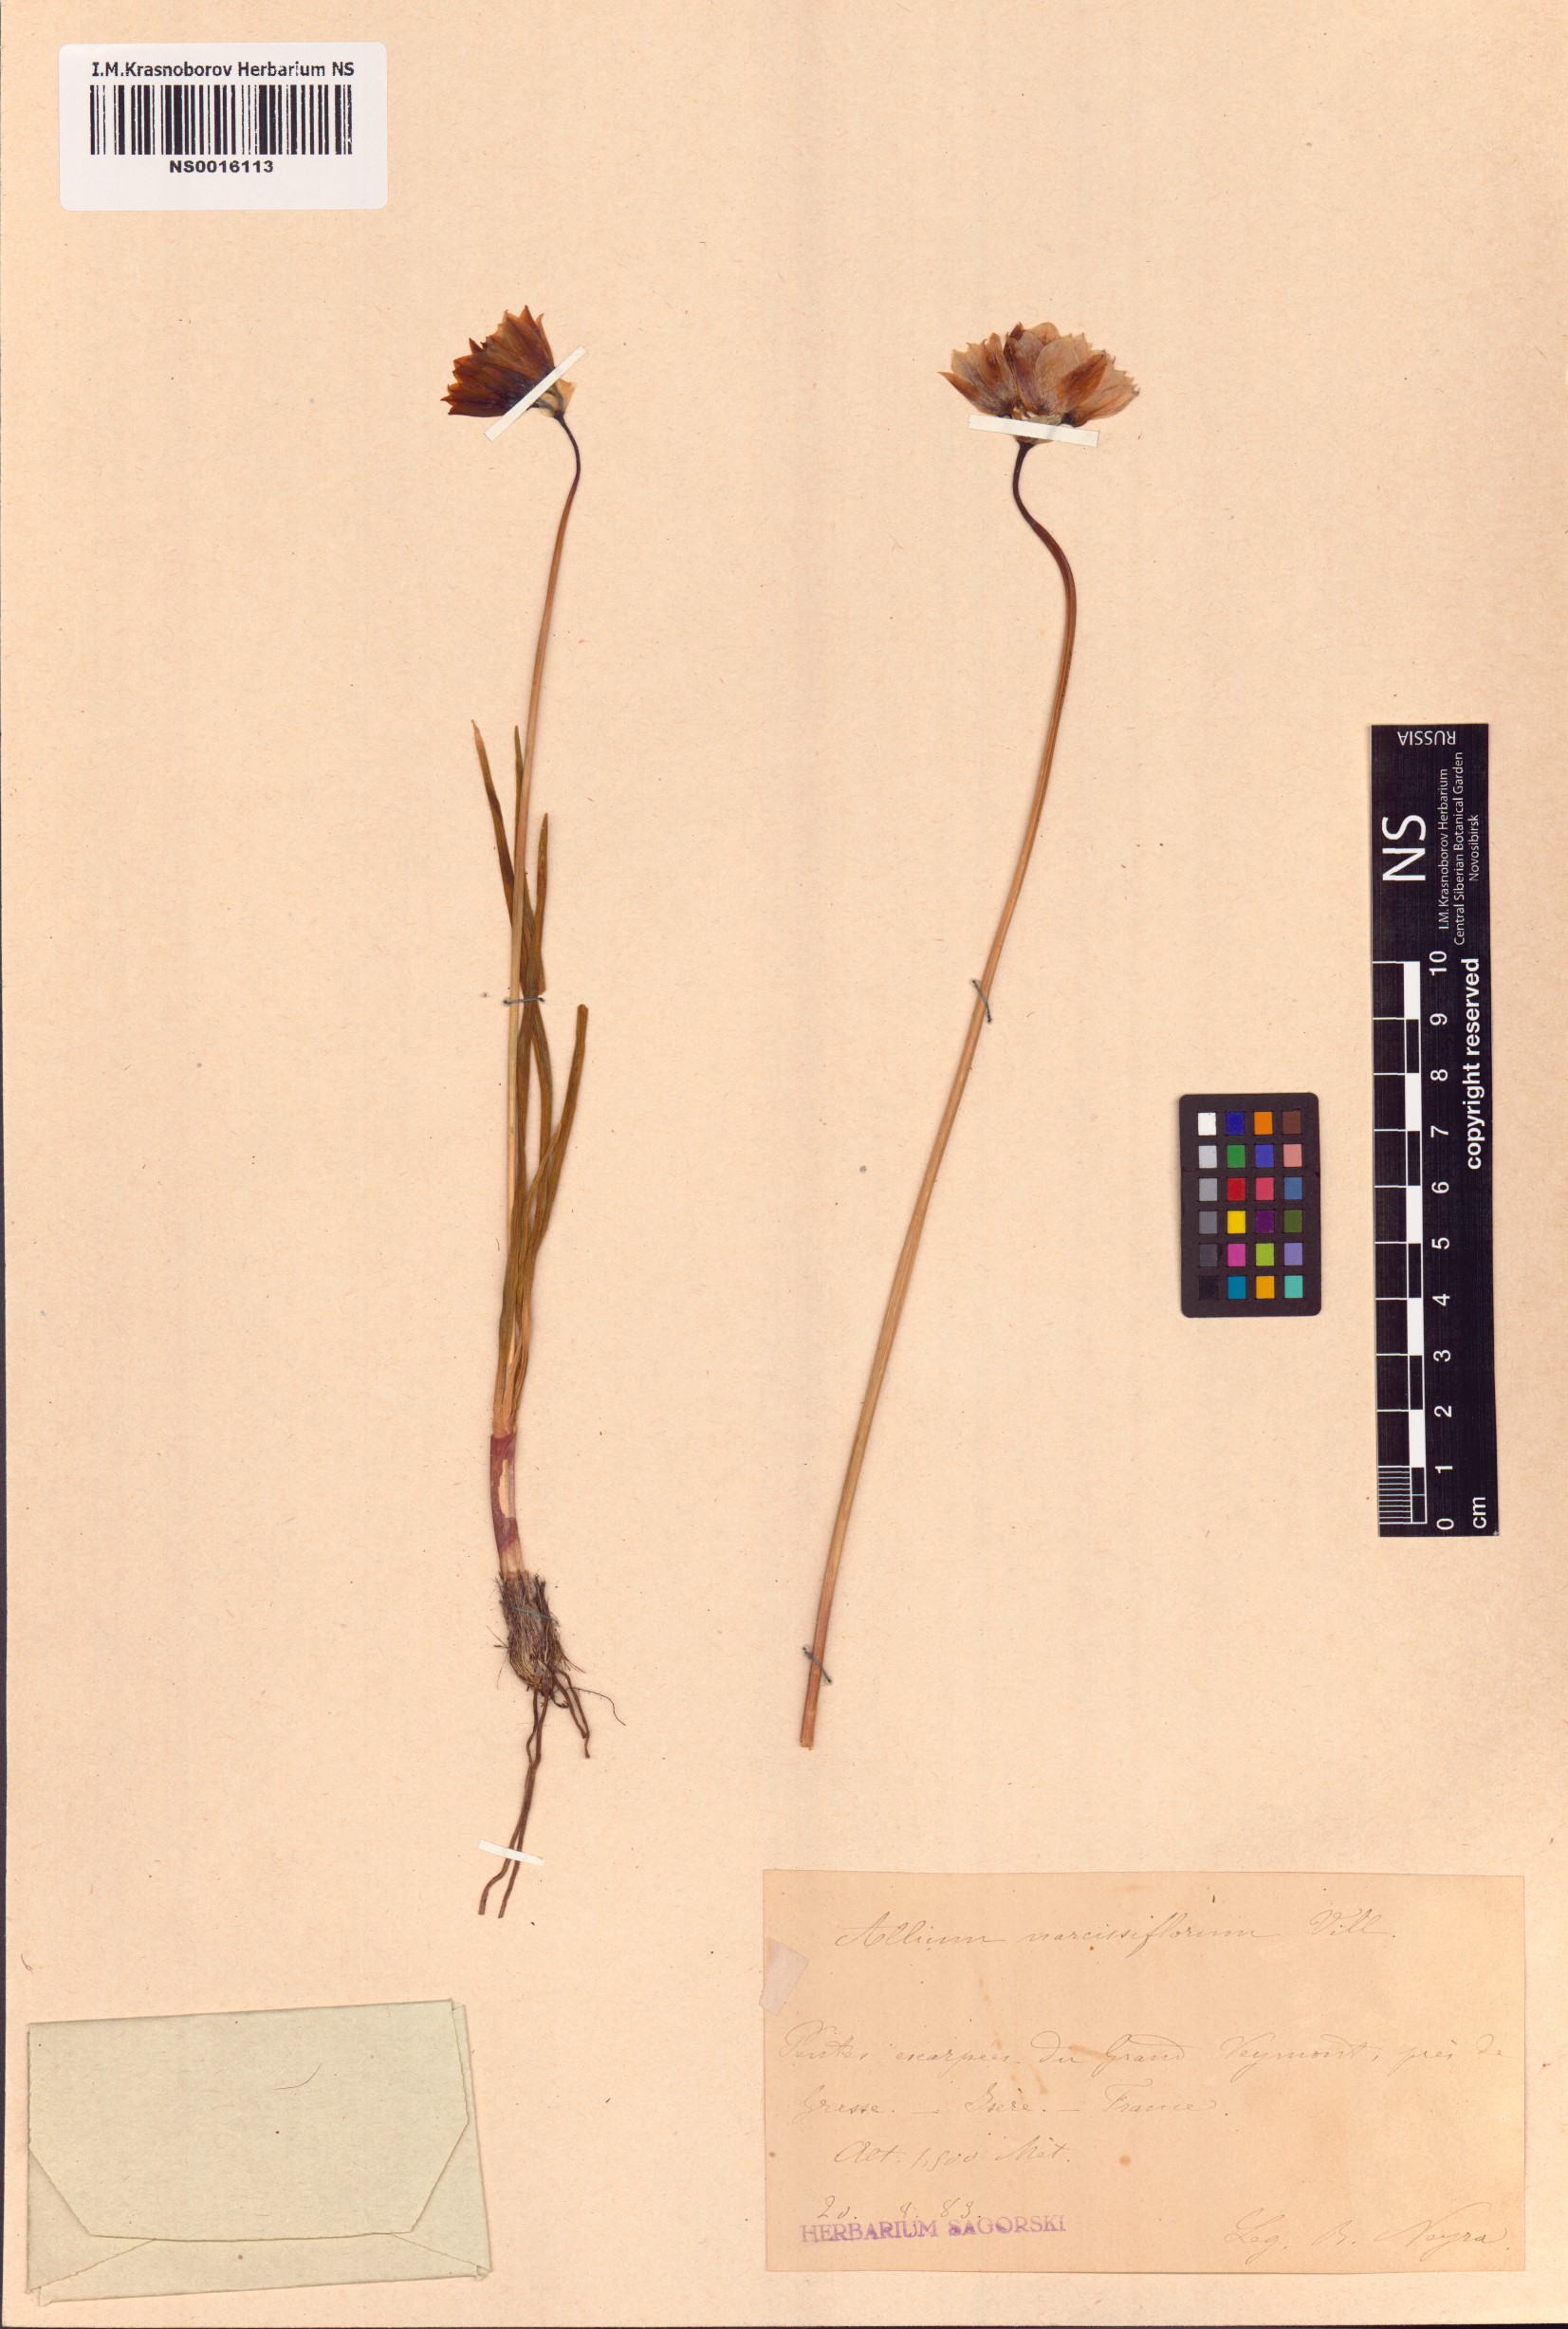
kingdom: Plantae
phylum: Tracheophyta
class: Liliopsida
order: Asparagales
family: Amaryllidaceae
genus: Allium
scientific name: Allium narcissiflorum
